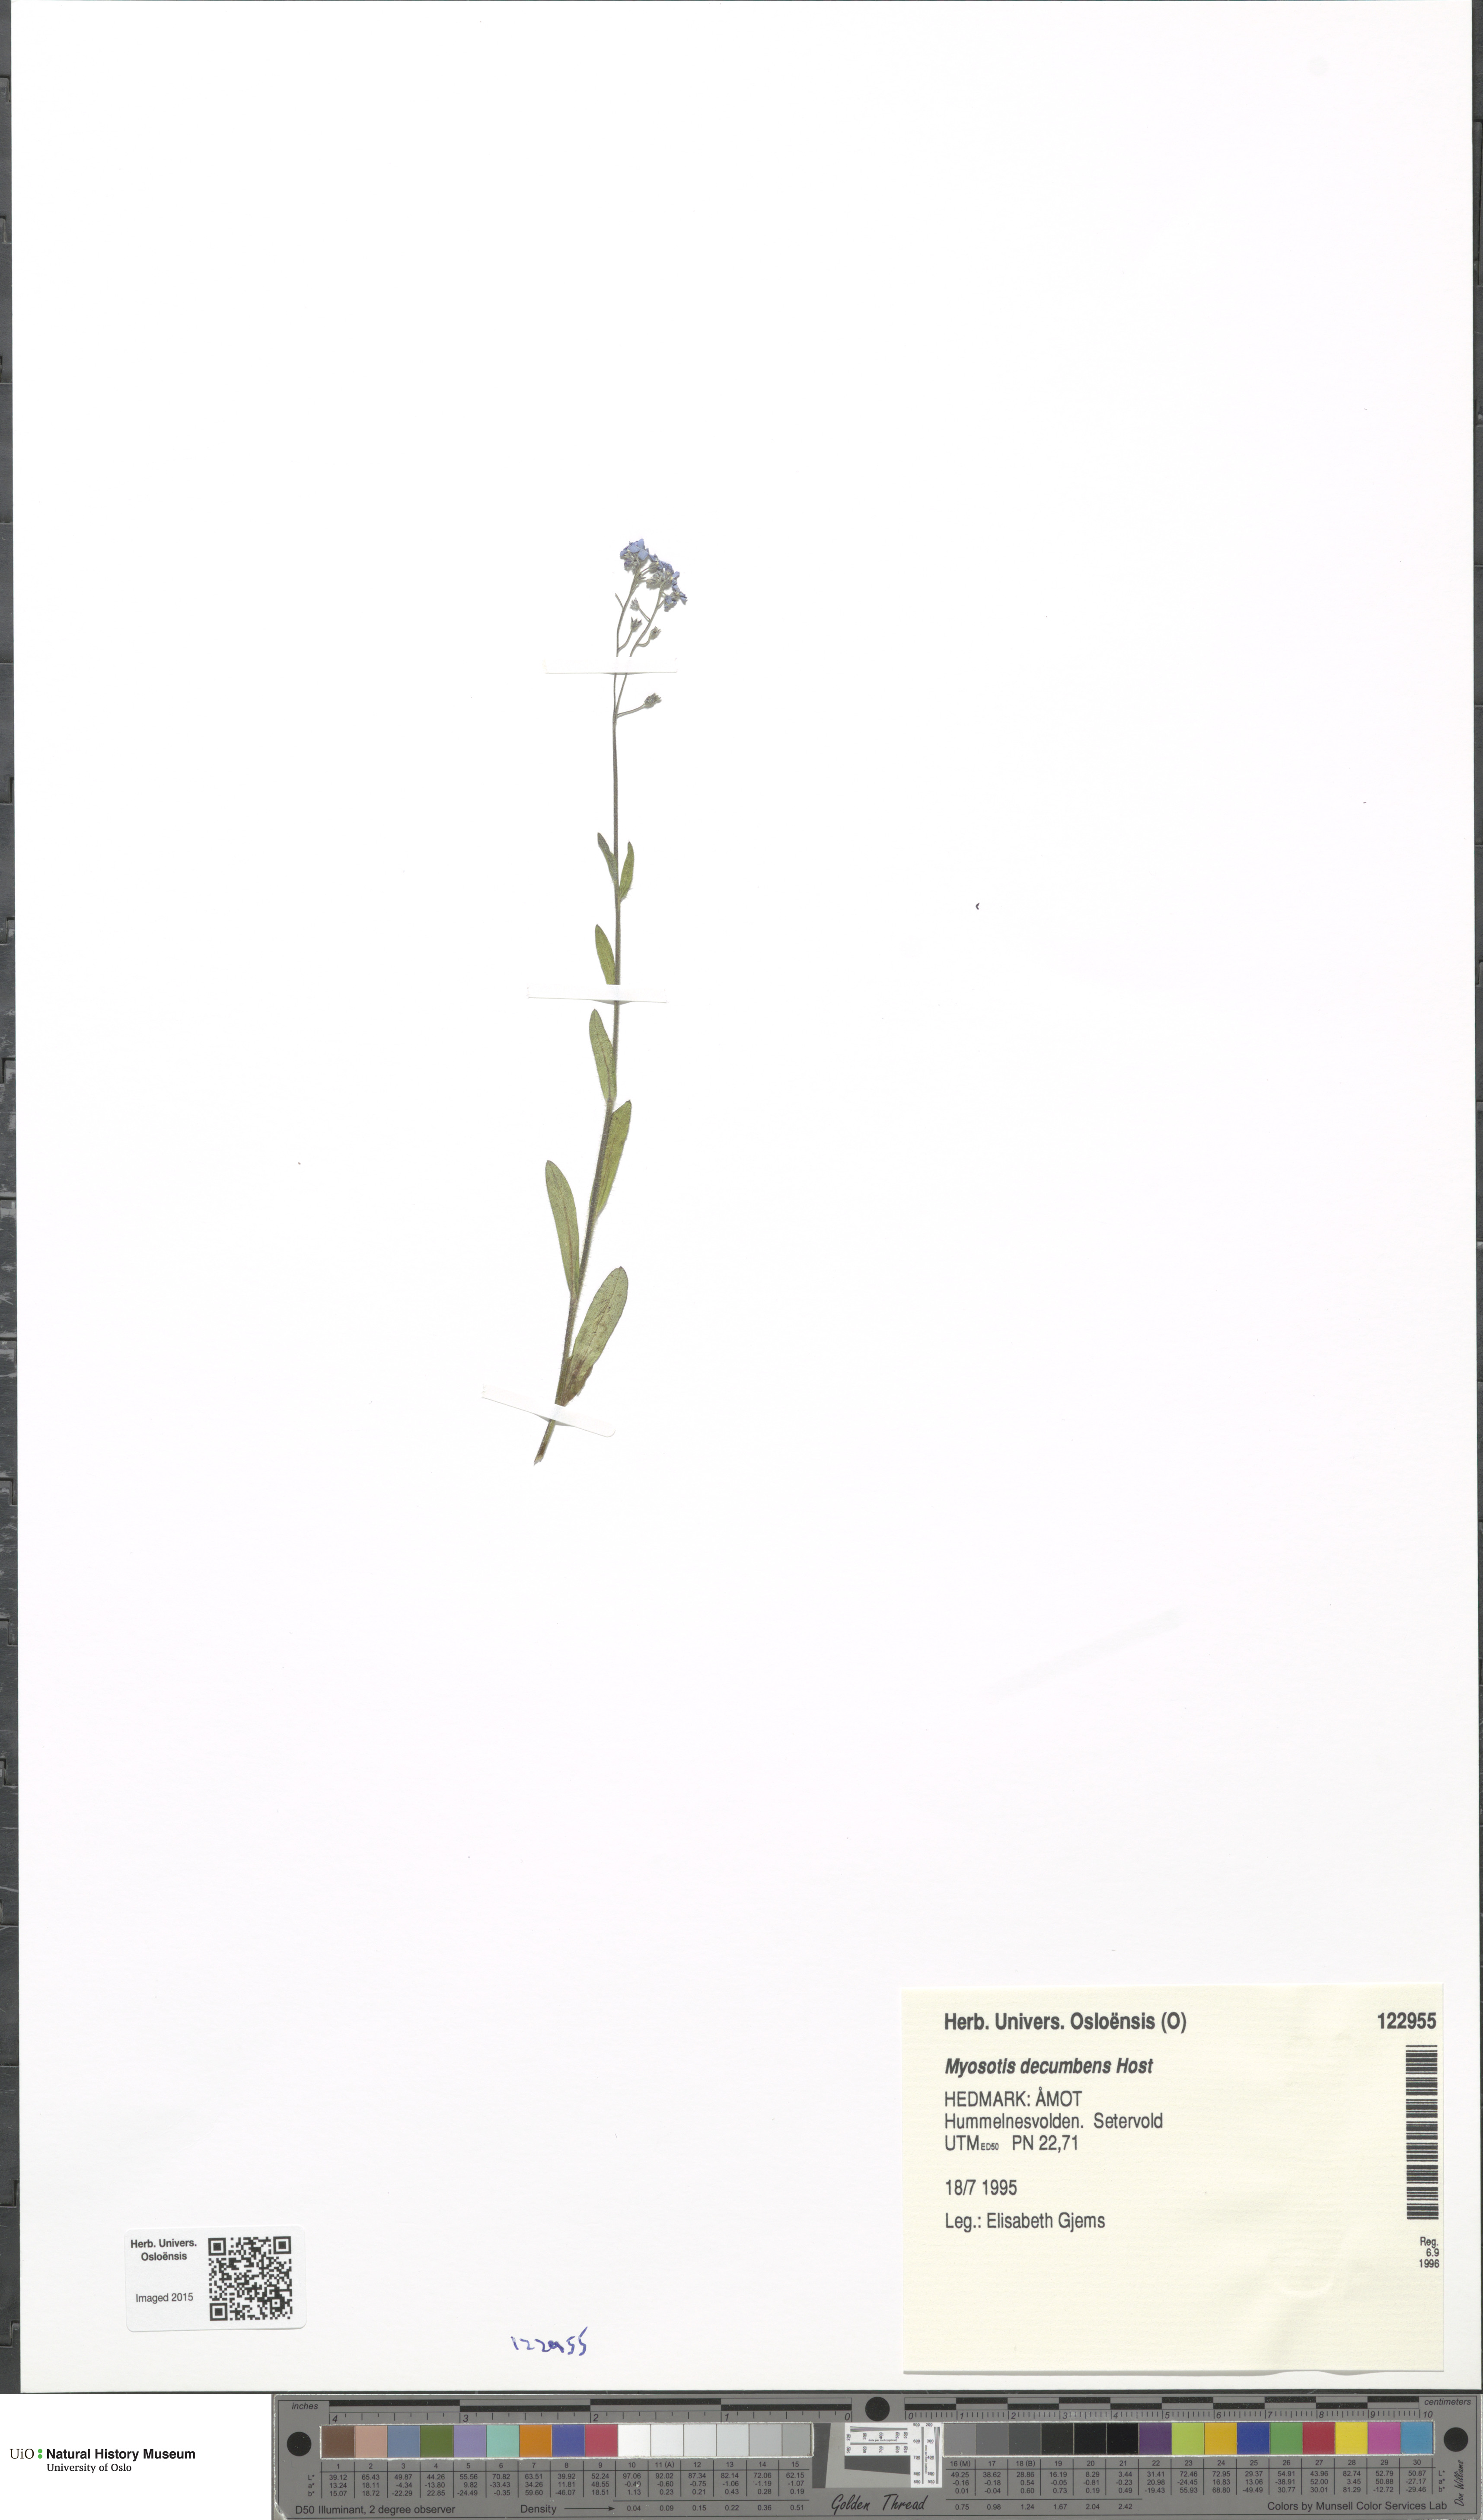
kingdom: Plantae
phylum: Tracheophyta
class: Magnoliopsida
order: Boraginales
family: Boraginaceae
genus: Myosotis
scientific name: Myosotis decumbens
